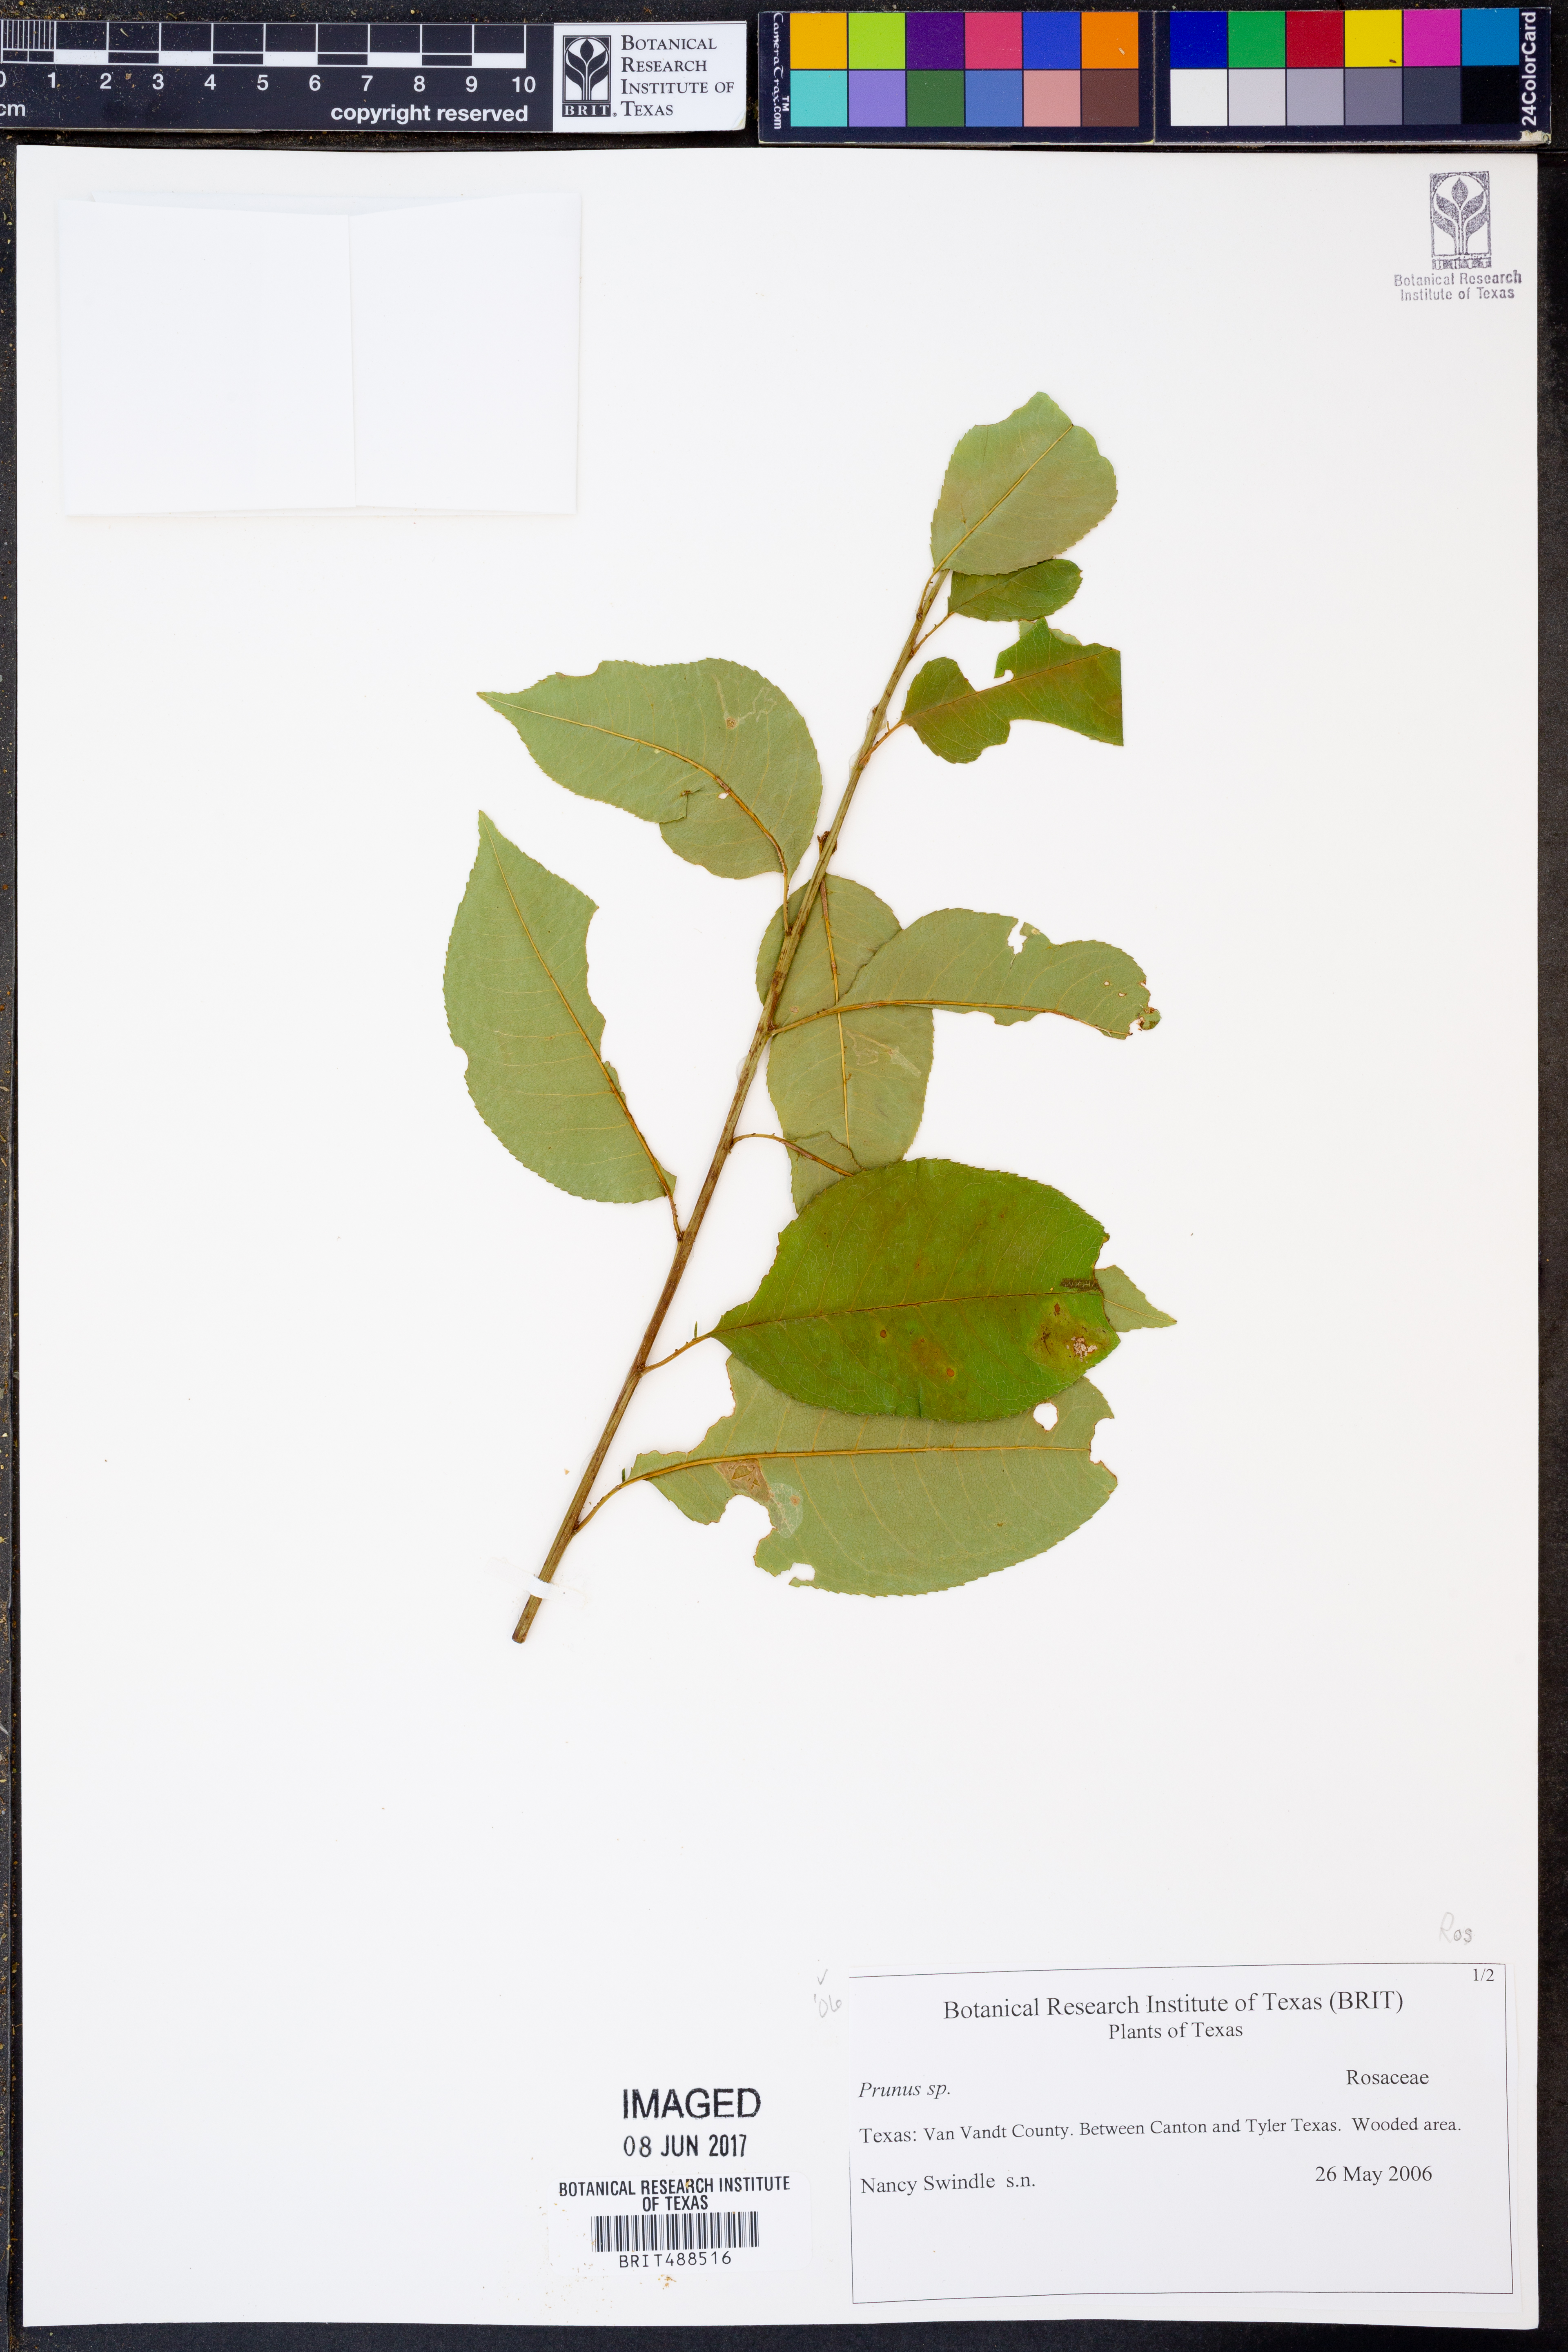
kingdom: Plantae
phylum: Tracheophyta
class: Magnoliopsida
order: Rosales
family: Rosaceae
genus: Prunus
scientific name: Prunus
